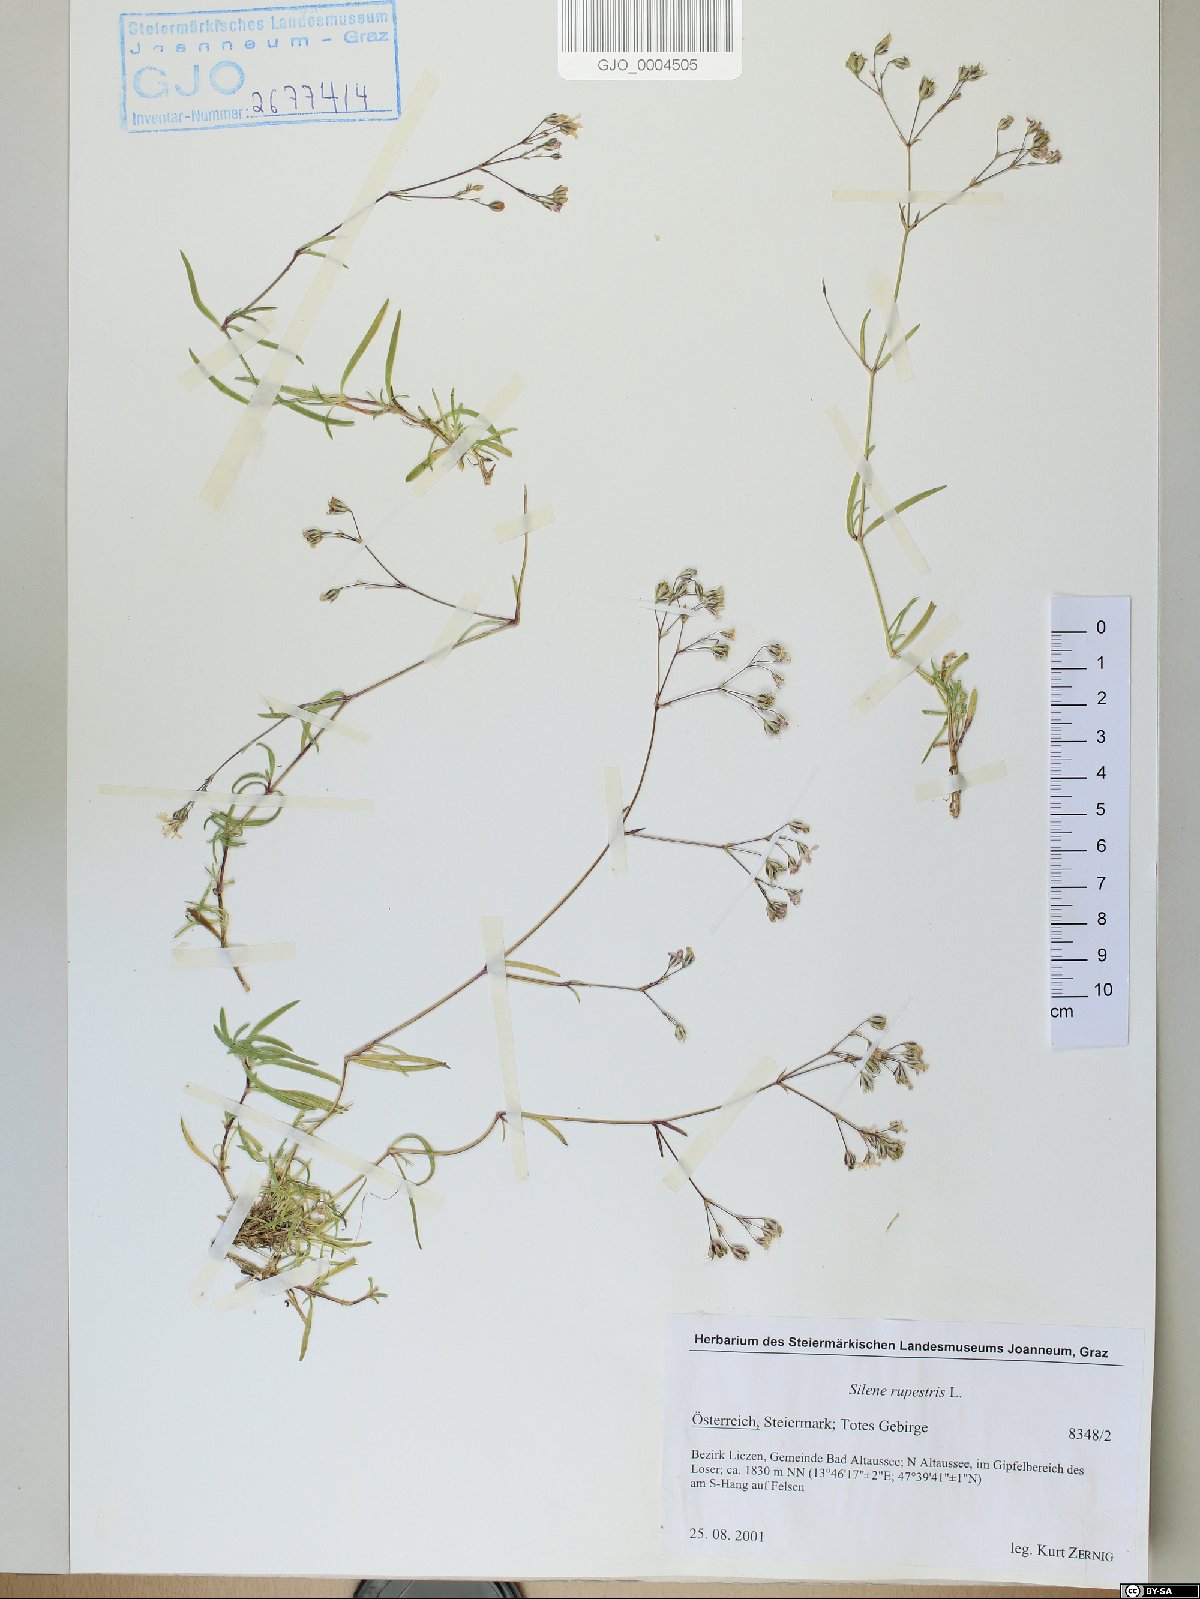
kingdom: Plantae
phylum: Tracheophyta
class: Magnoliopsida
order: Caryophyllales
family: Caryophyllaceae
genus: Gypsophila
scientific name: Gypsophila repens
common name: Creeping baby's-breath
